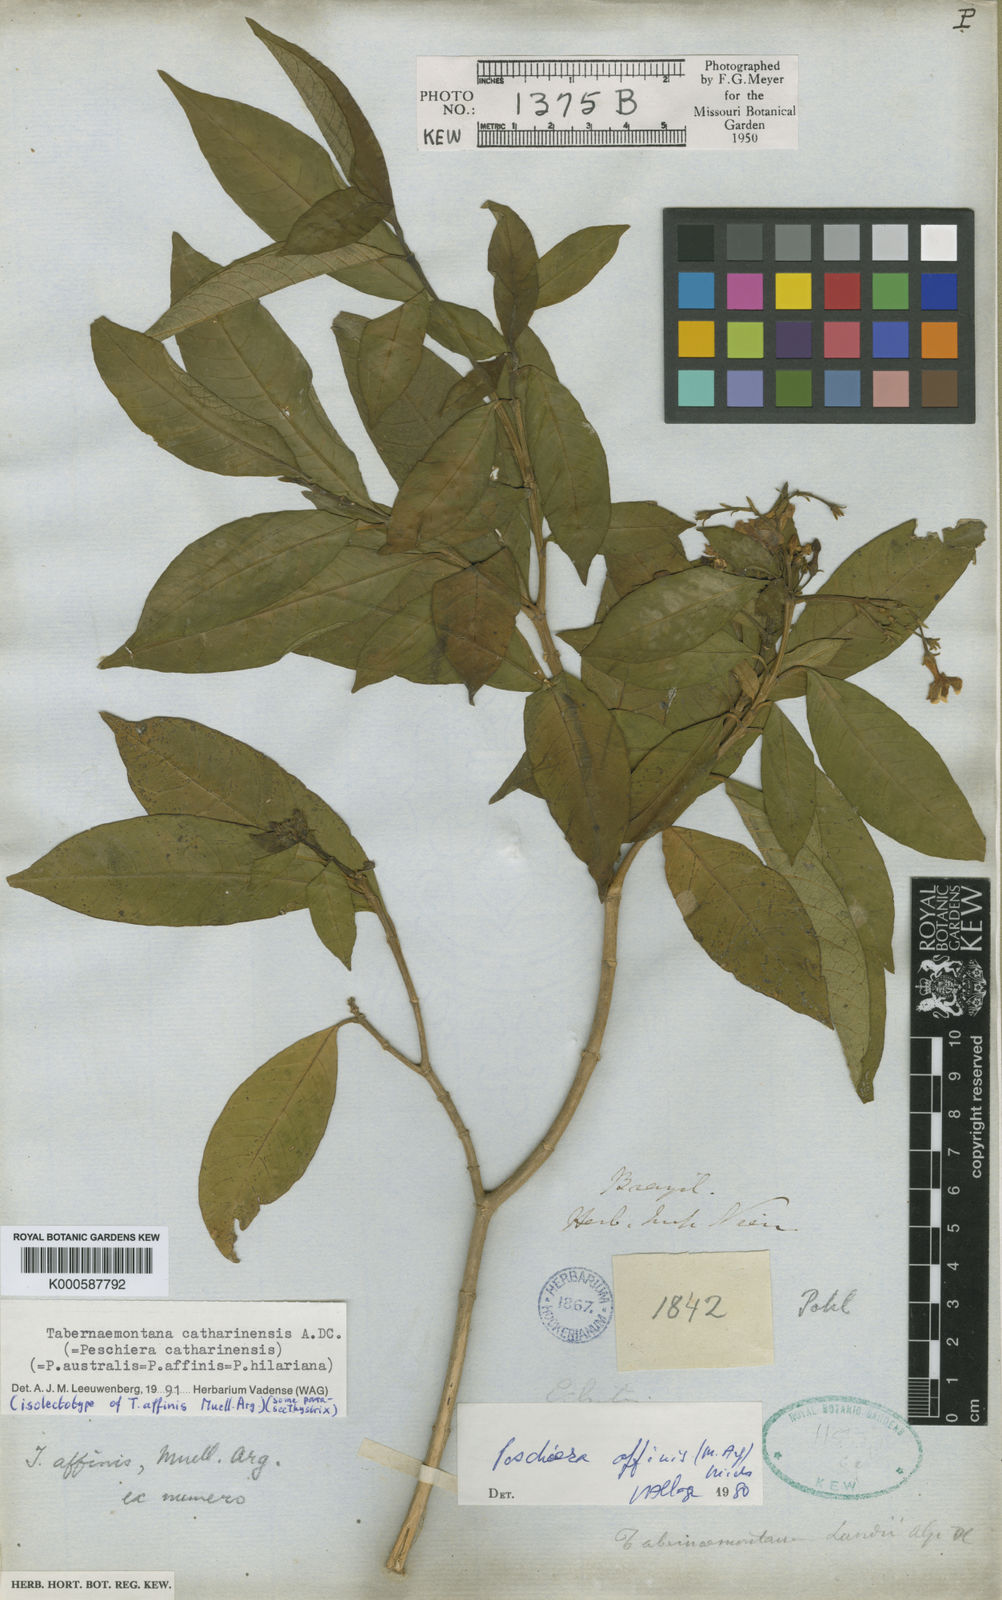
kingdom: Plantae
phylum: Tracheophyta
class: Magnoliopsida
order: Gentianales
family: Apocynaceae
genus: Tabernaemontana
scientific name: Tabernaemontana catharinensis
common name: Pinwheel-flower
